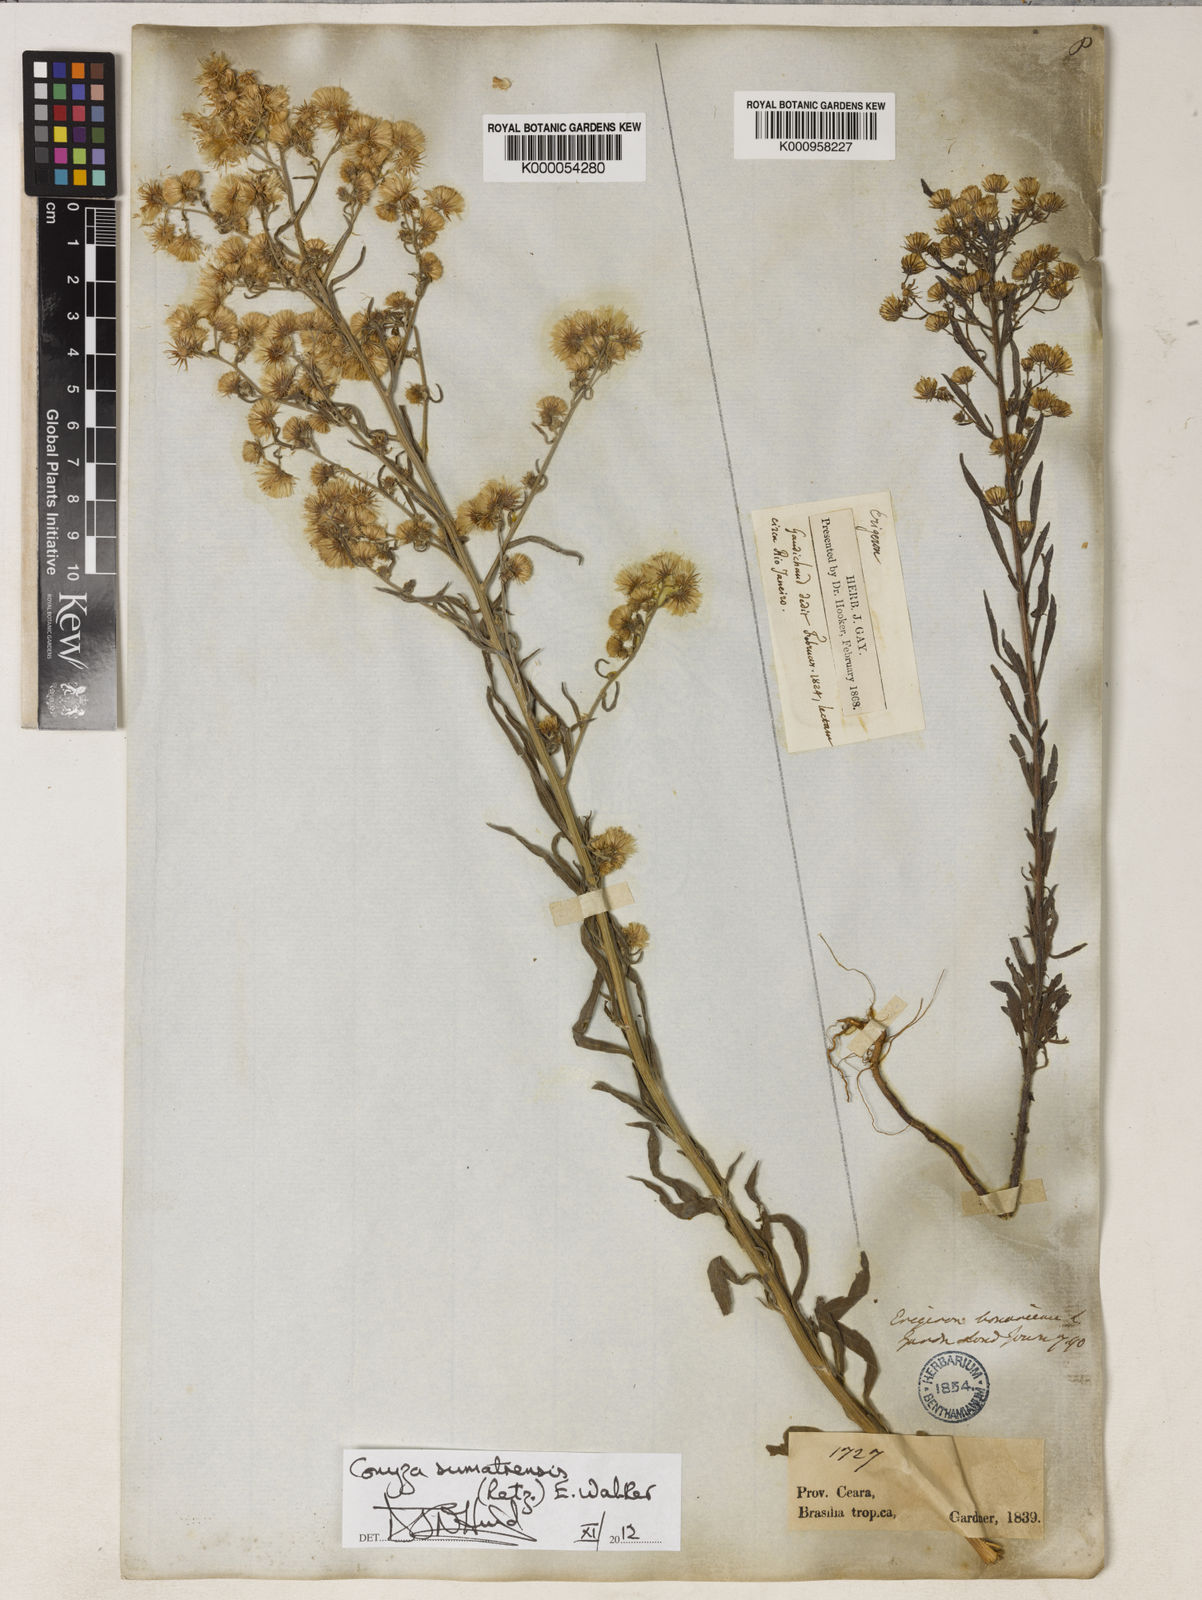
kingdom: Plantae
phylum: Tracheophyta
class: Magnoliopsida
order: Asterales
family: Asteraceae
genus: Erigeron
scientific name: Erigeron sumatrensis
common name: Daisy
